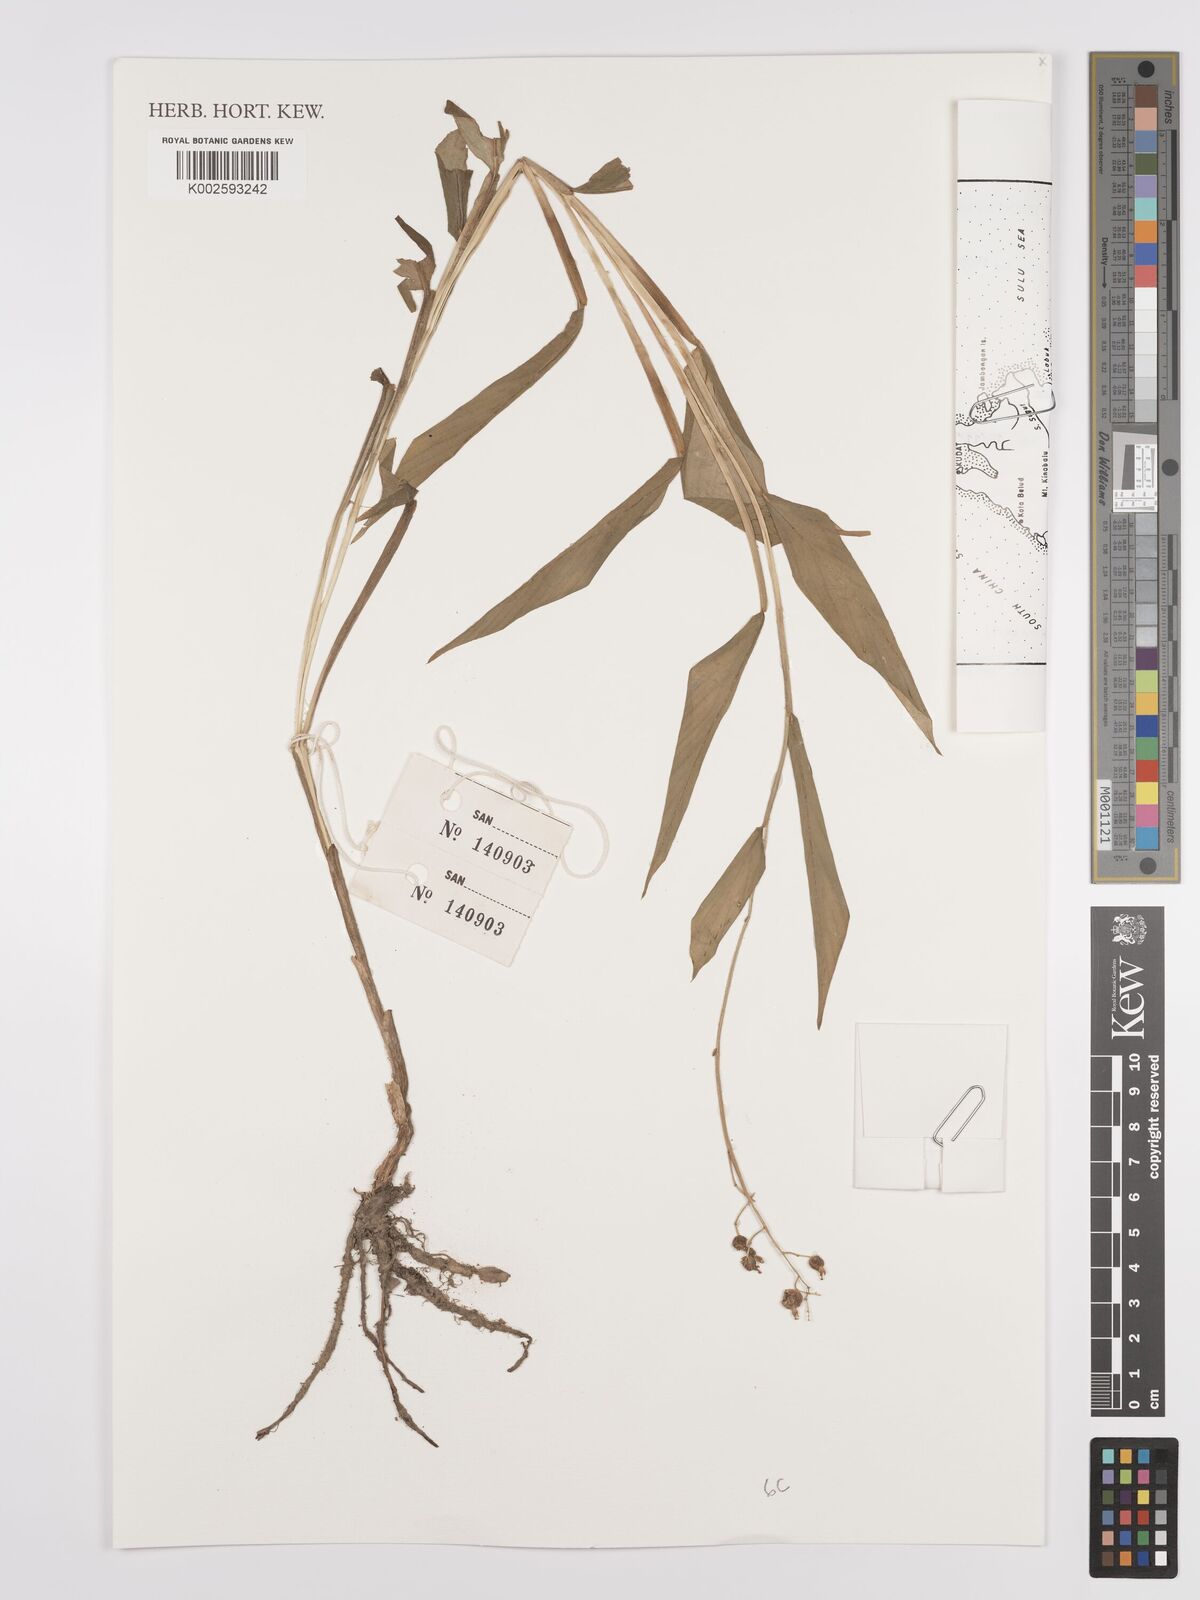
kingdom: Plantae
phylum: Tracheophyta
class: Liliopsida
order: Zingiberales
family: Zingiberaceae
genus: Globba
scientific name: Globba
